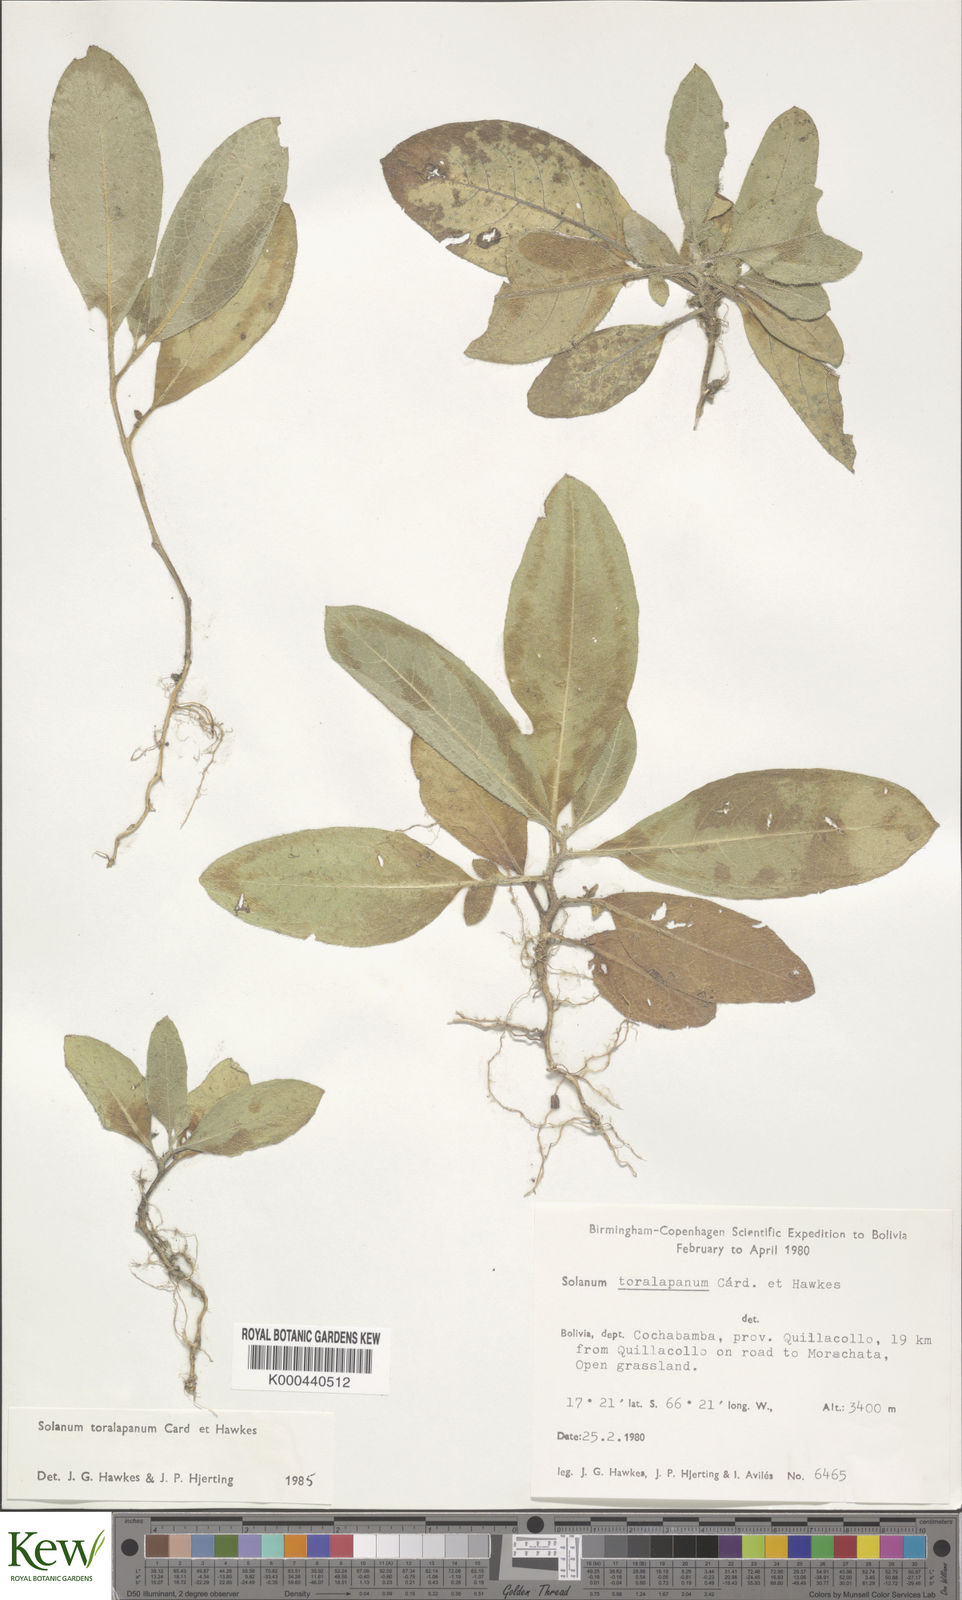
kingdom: Plantae
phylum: Tracheophyta
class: Magnoliopsida
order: Solanales
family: Solanaceae
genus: Solanum
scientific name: Solanum boliviense
